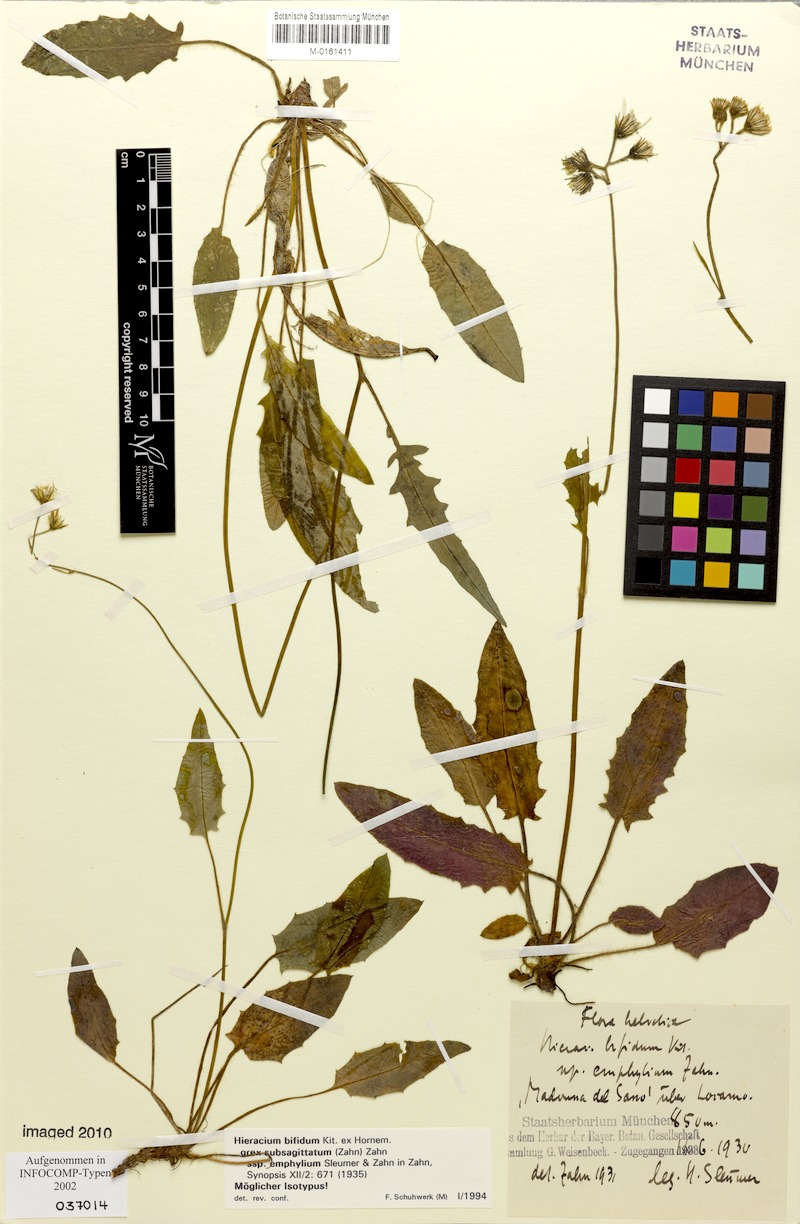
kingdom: Plantae
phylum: Tracheophyta
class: Magnoliopsida
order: Asterales
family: Asteraceae
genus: Hieracium
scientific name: Hieracium bifidum
